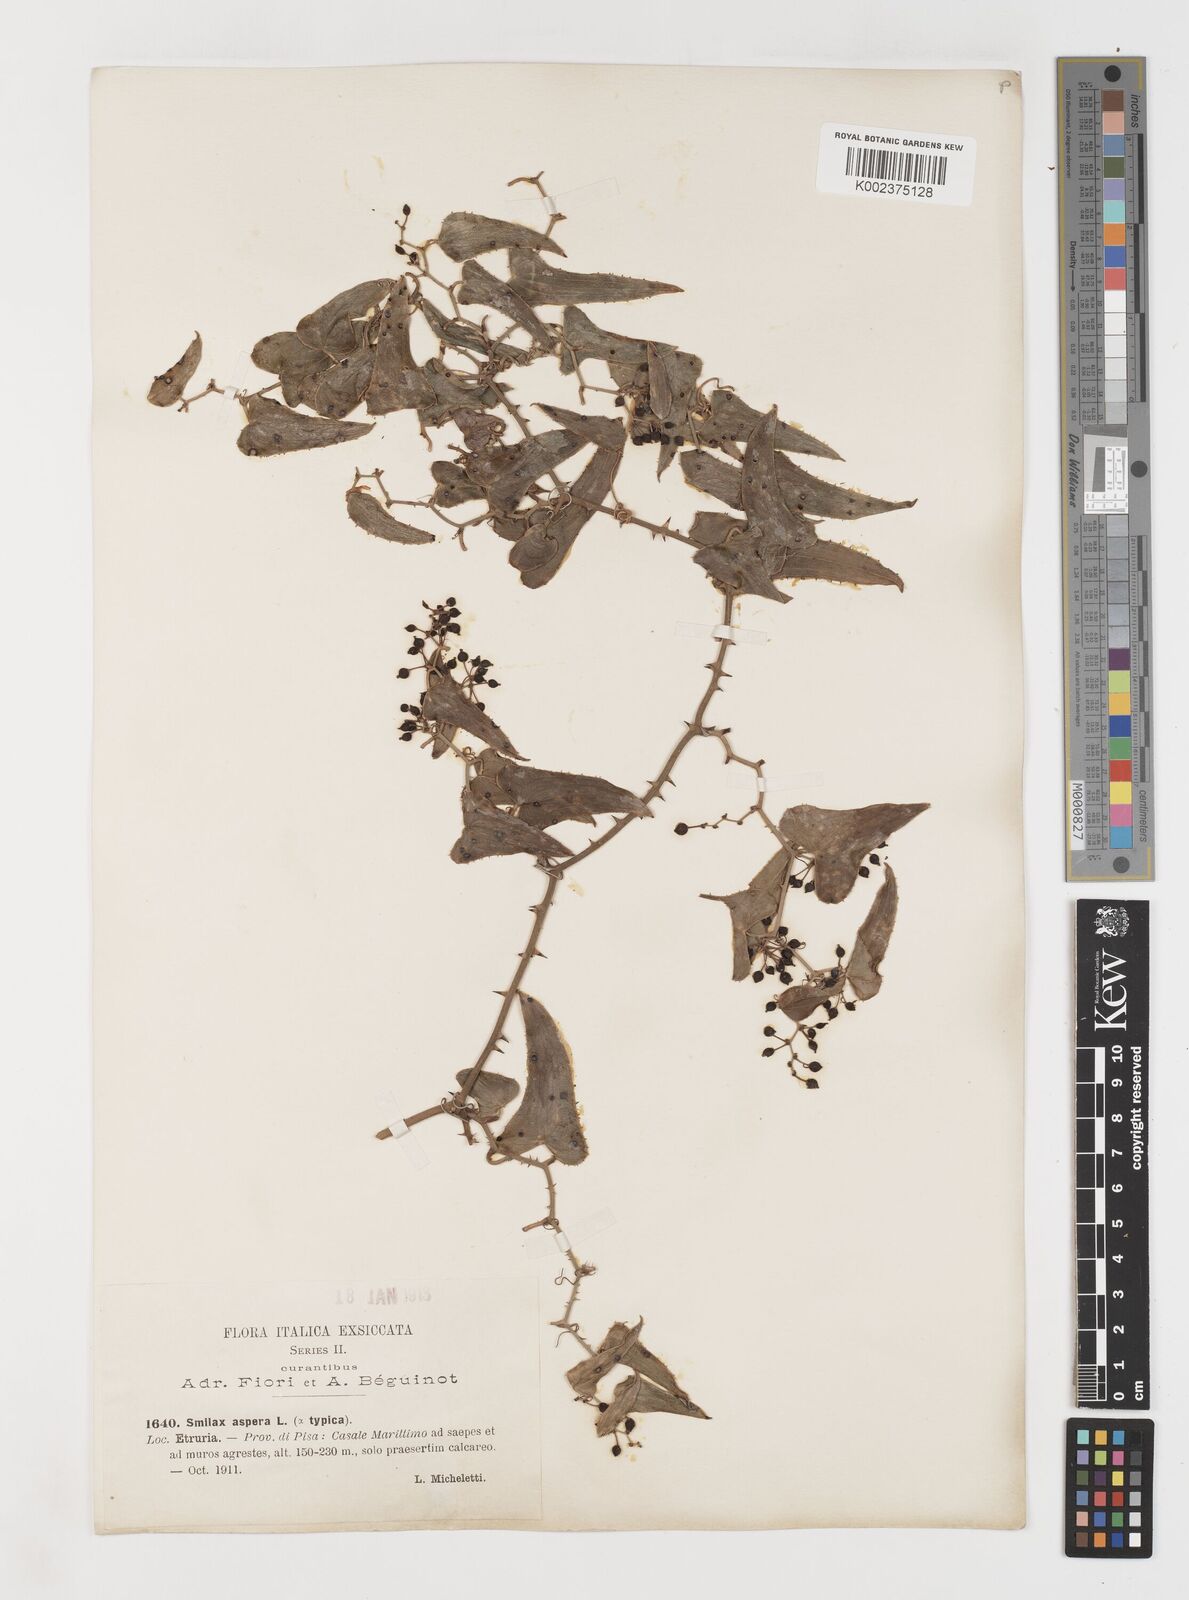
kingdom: Plantae
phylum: Tracheophyta
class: Liliopsida
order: Liliales
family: Smilacaceae
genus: Smilax
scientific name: Smilax aspera
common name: Common smilax
